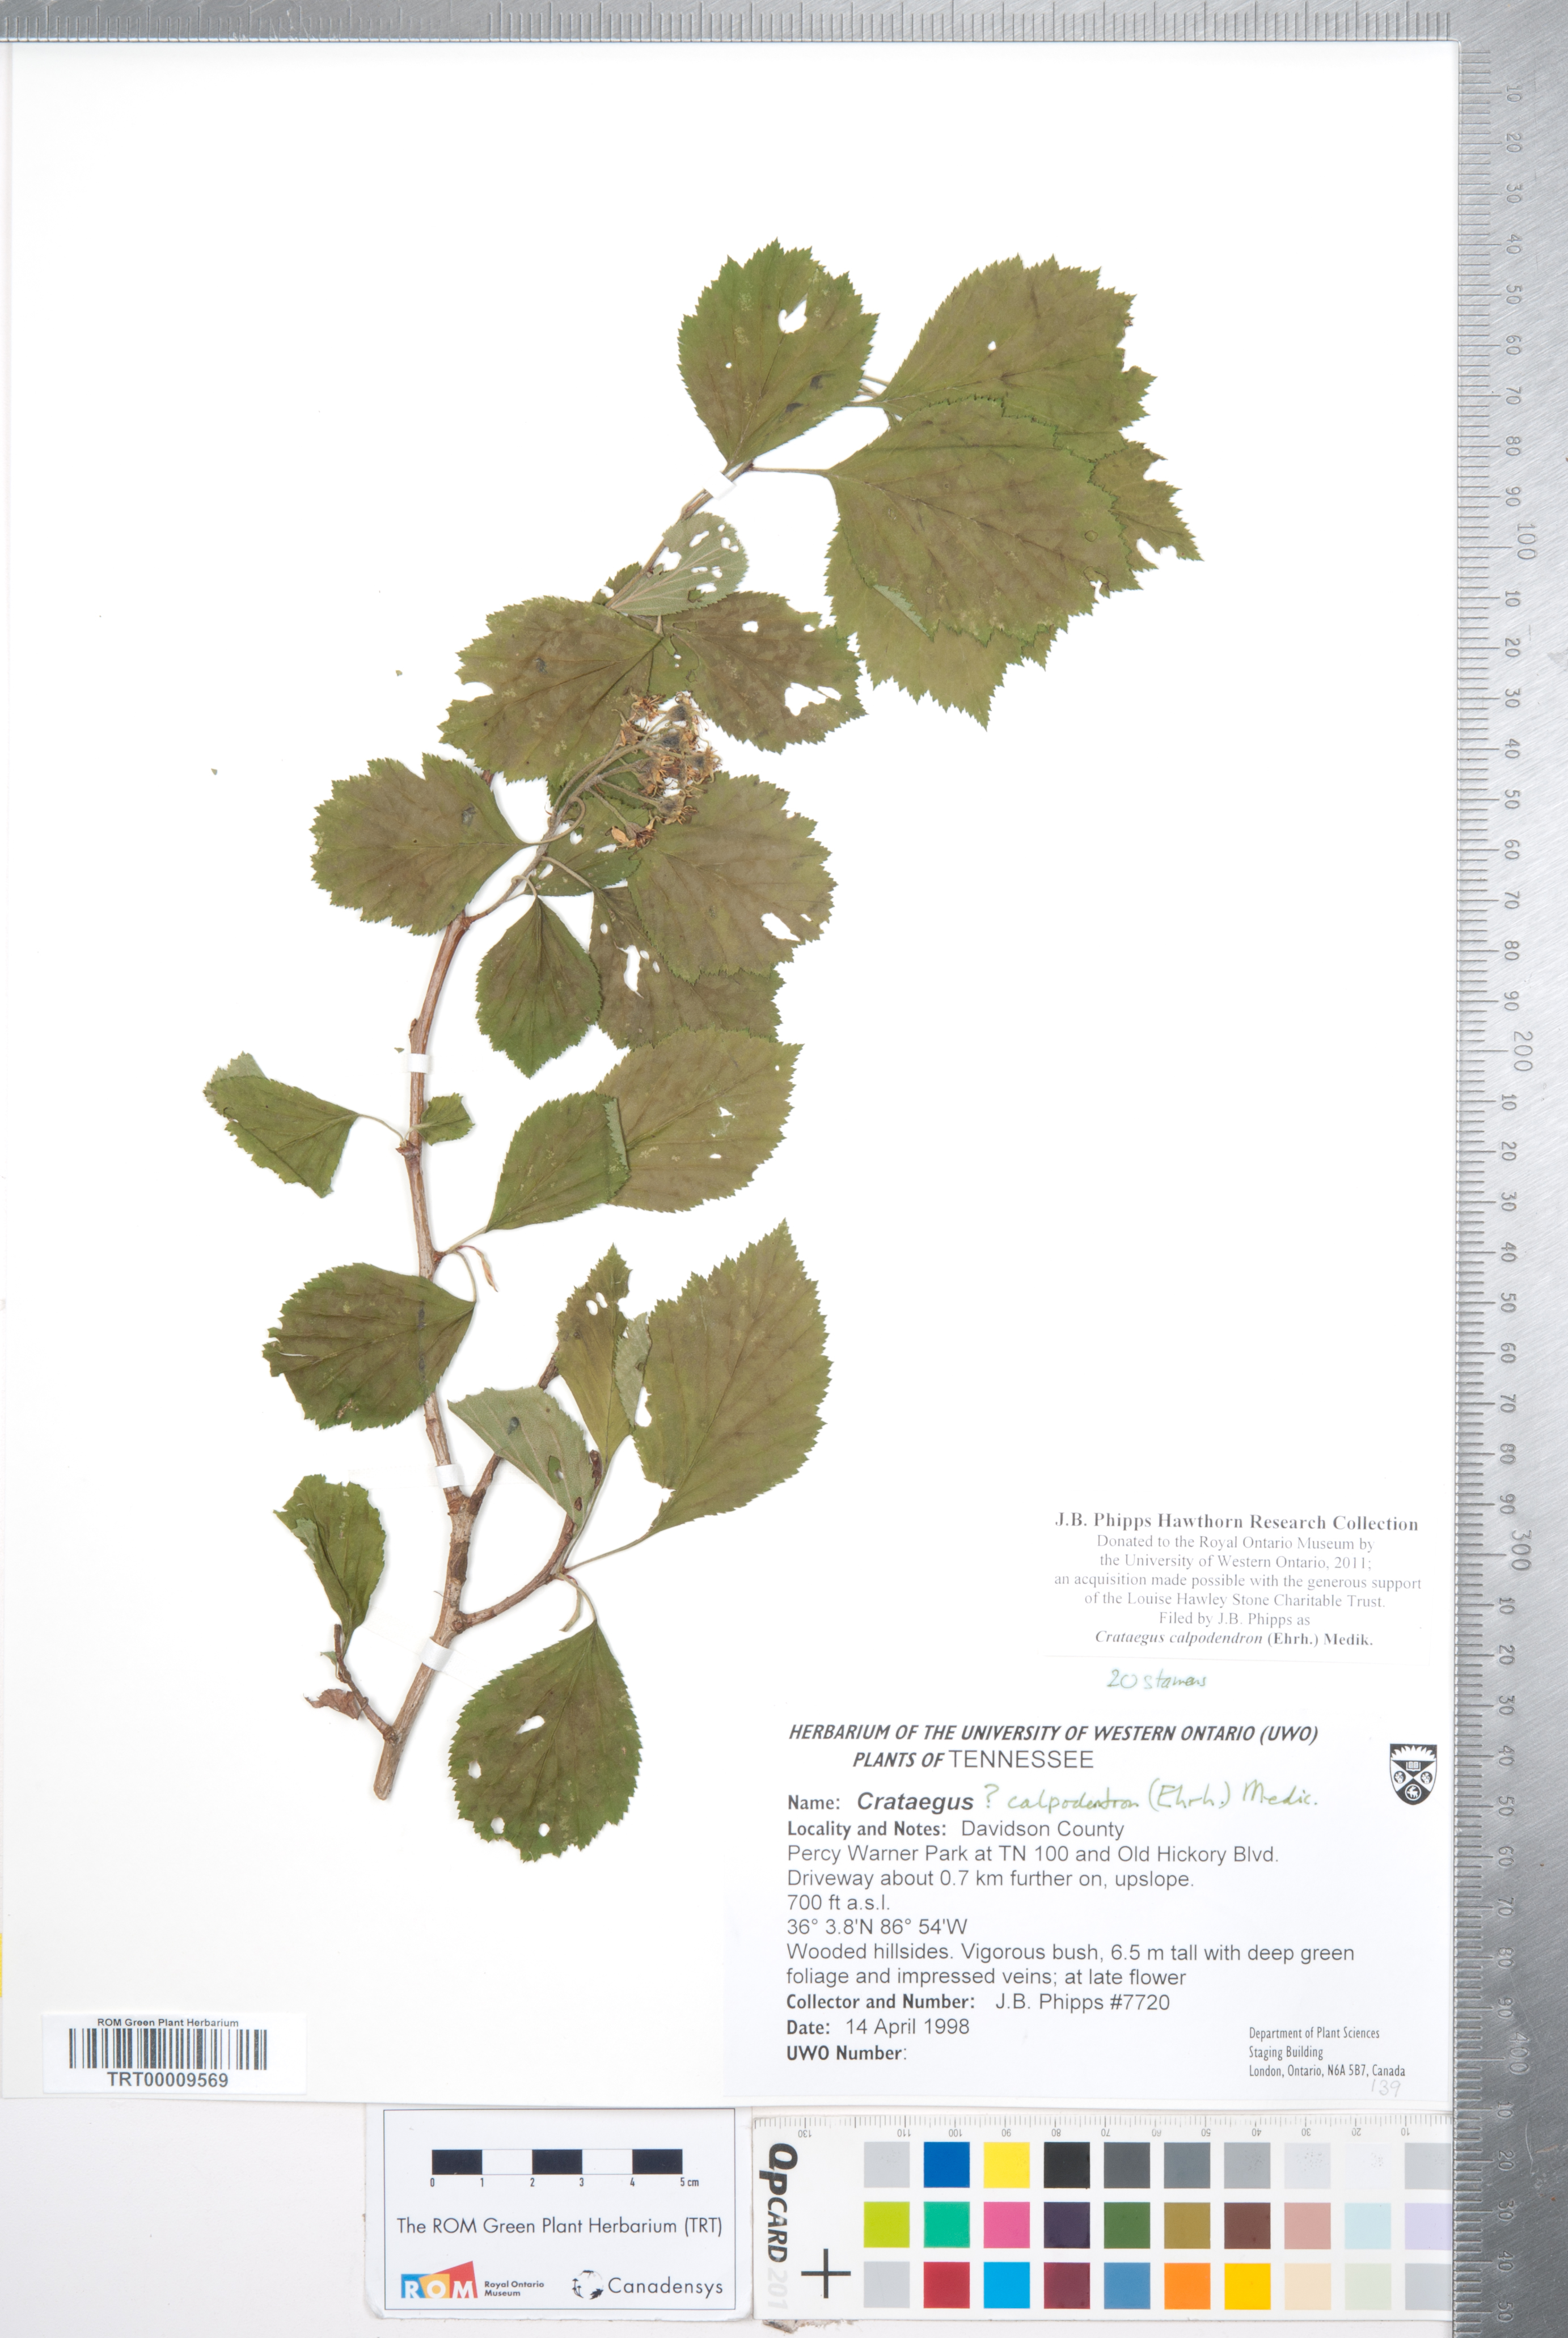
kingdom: Plantae
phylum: Tracheophyta
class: Magnoliopsida
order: Rosales
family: Rosaceae
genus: Crataegus
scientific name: Crataegus calpodendron
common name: Pear hawthorn
